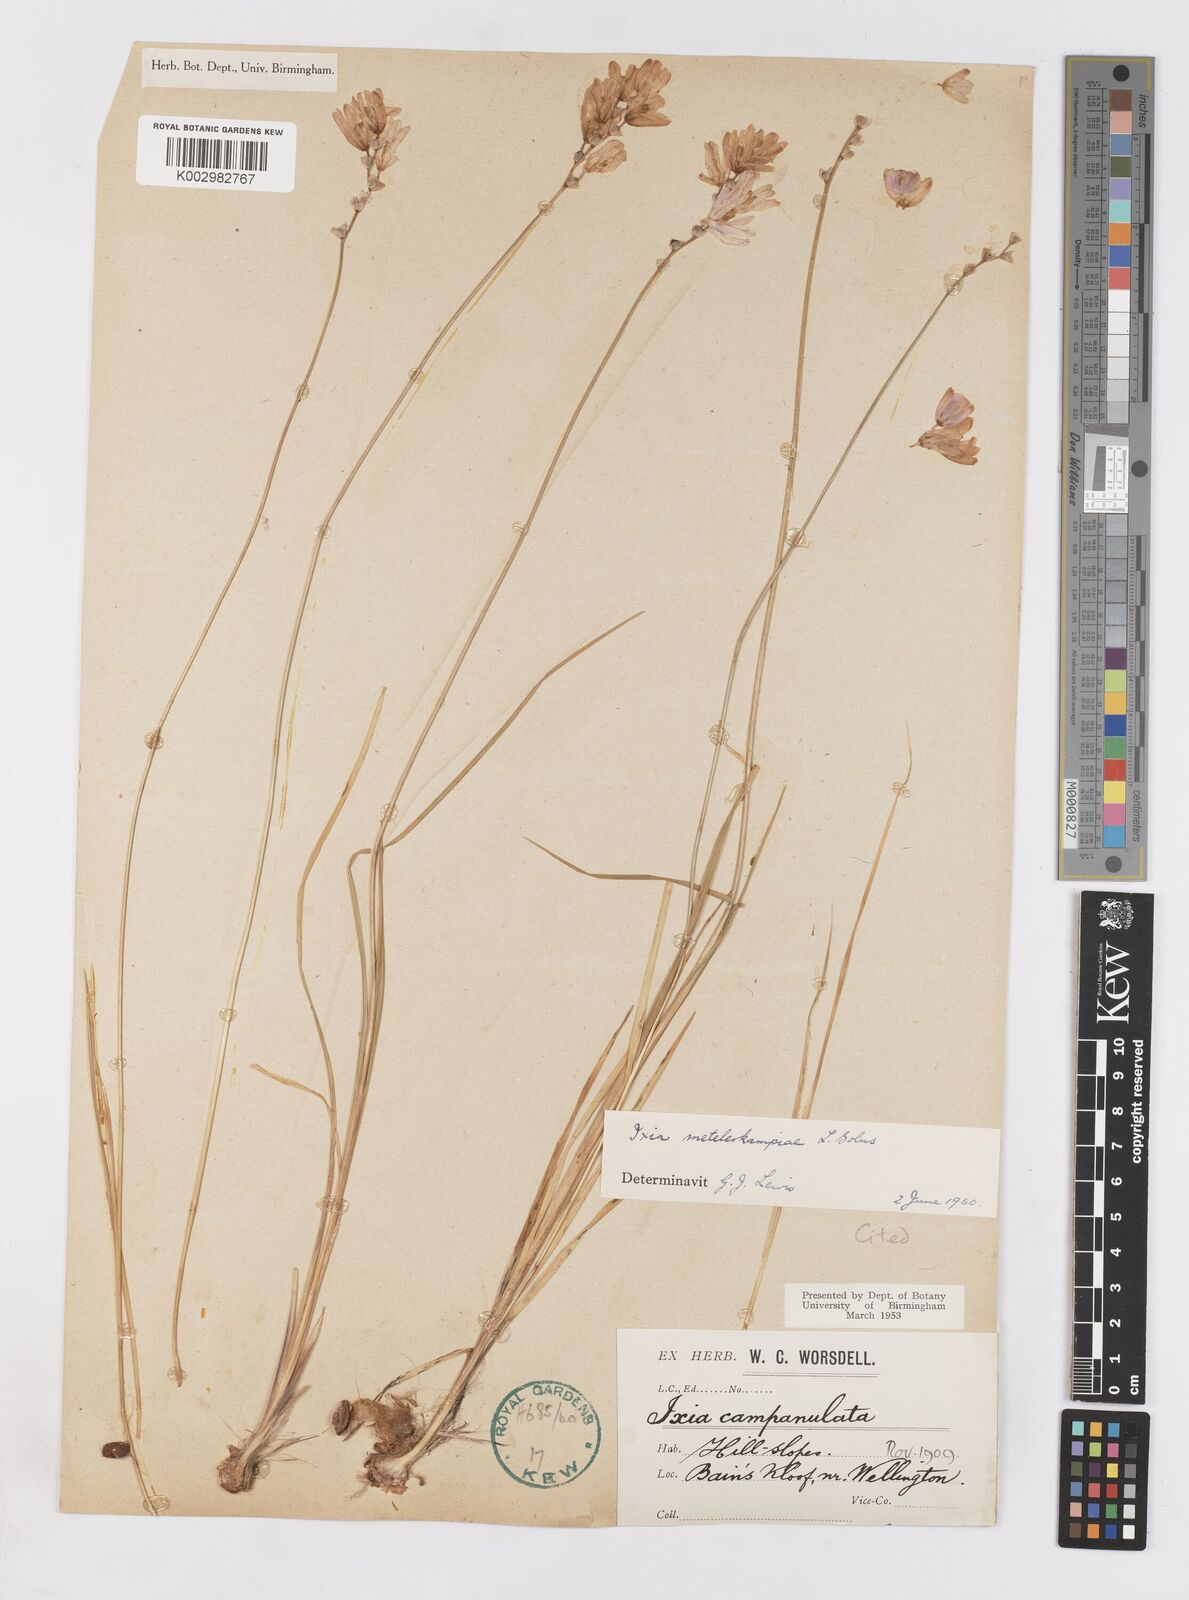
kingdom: Plantae
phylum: Tracheophyta
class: Liliopsida
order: Asparagales
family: Iridaceae
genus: Ixia
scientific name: Ixia metelerkampiae
